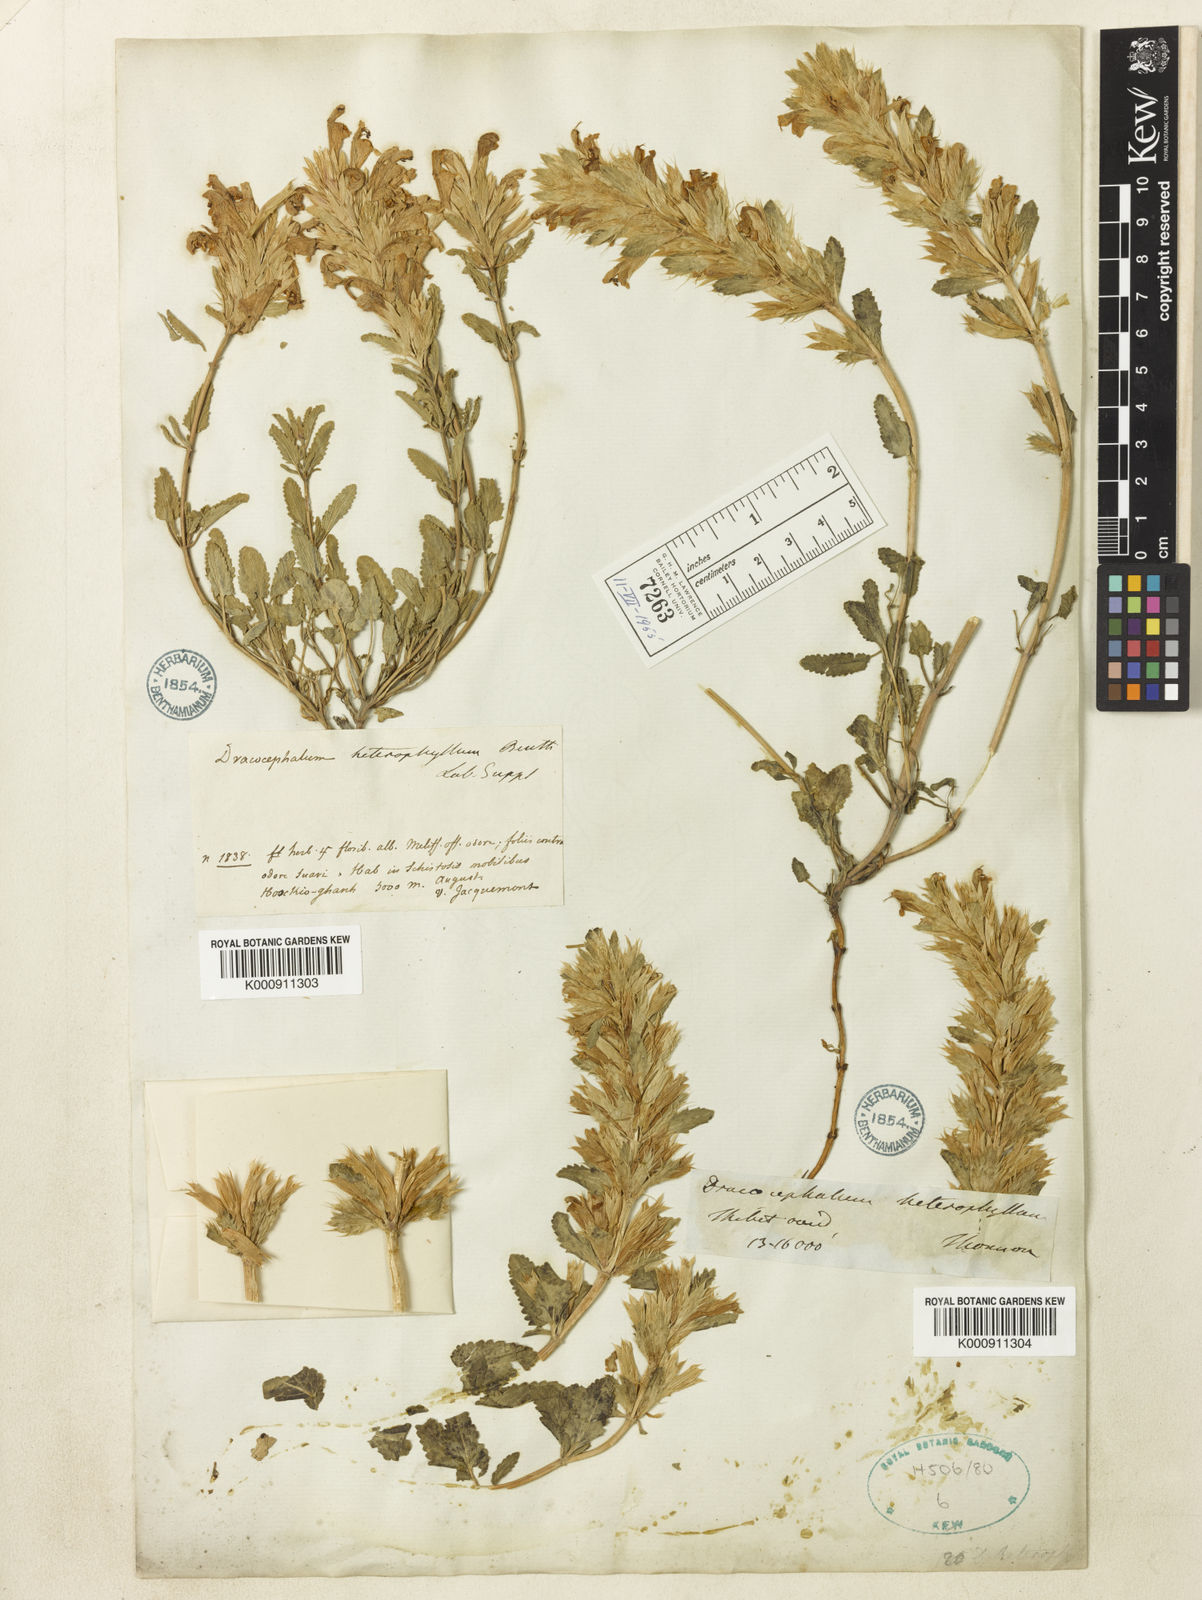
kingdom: Plantae
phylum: Tracheophyta
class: Magnoliopsida
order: Lamiales
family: Lamiaceae
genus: Dracocephalum
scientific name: Dracocephalum heterophyllum
